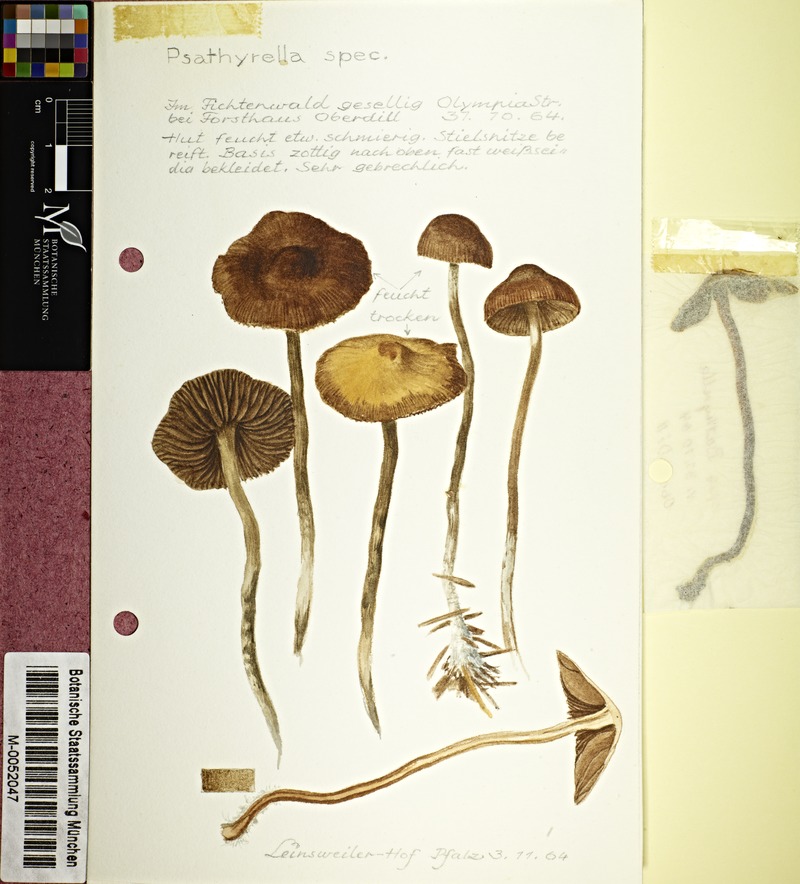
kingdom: Fungi
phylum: Basidiomycota
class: Agaricomycetes
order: Agaricales
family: Psathyrellaceae
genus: Psathyrella
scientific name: Psathyrella
